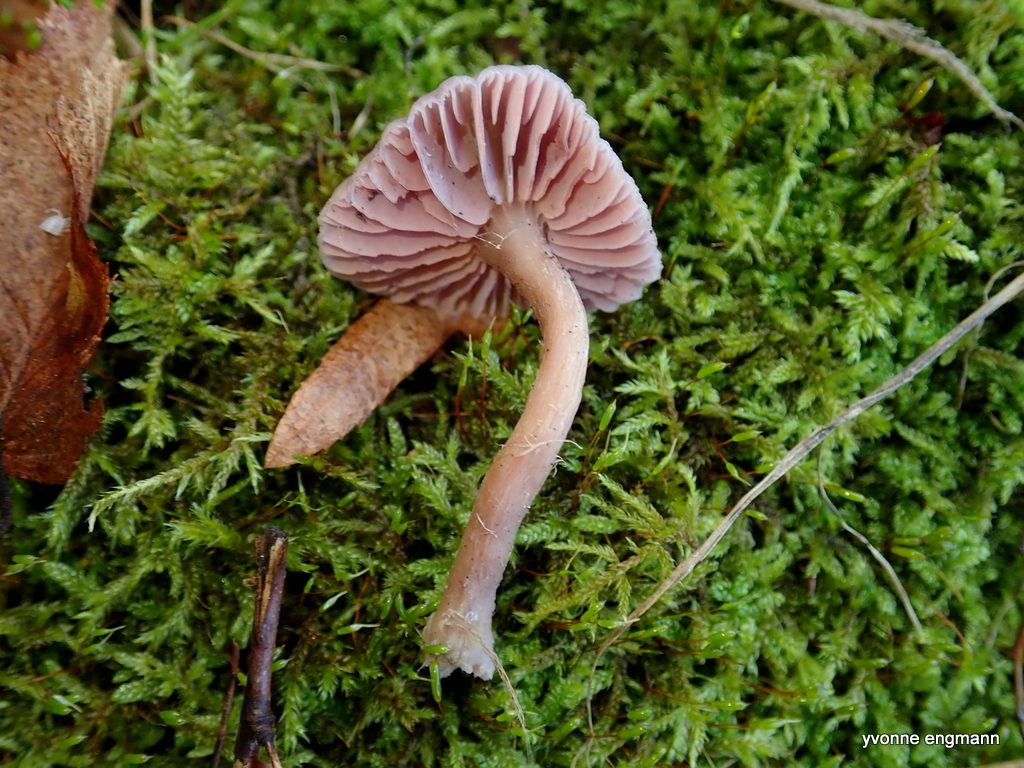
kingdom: Fungi
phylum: Basidiomycota
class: Agaricomycetes
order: Agaricales
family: Hydnangiaceae
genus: Laccaria
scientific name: Laccaria amethystina
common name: violet ametysthat
